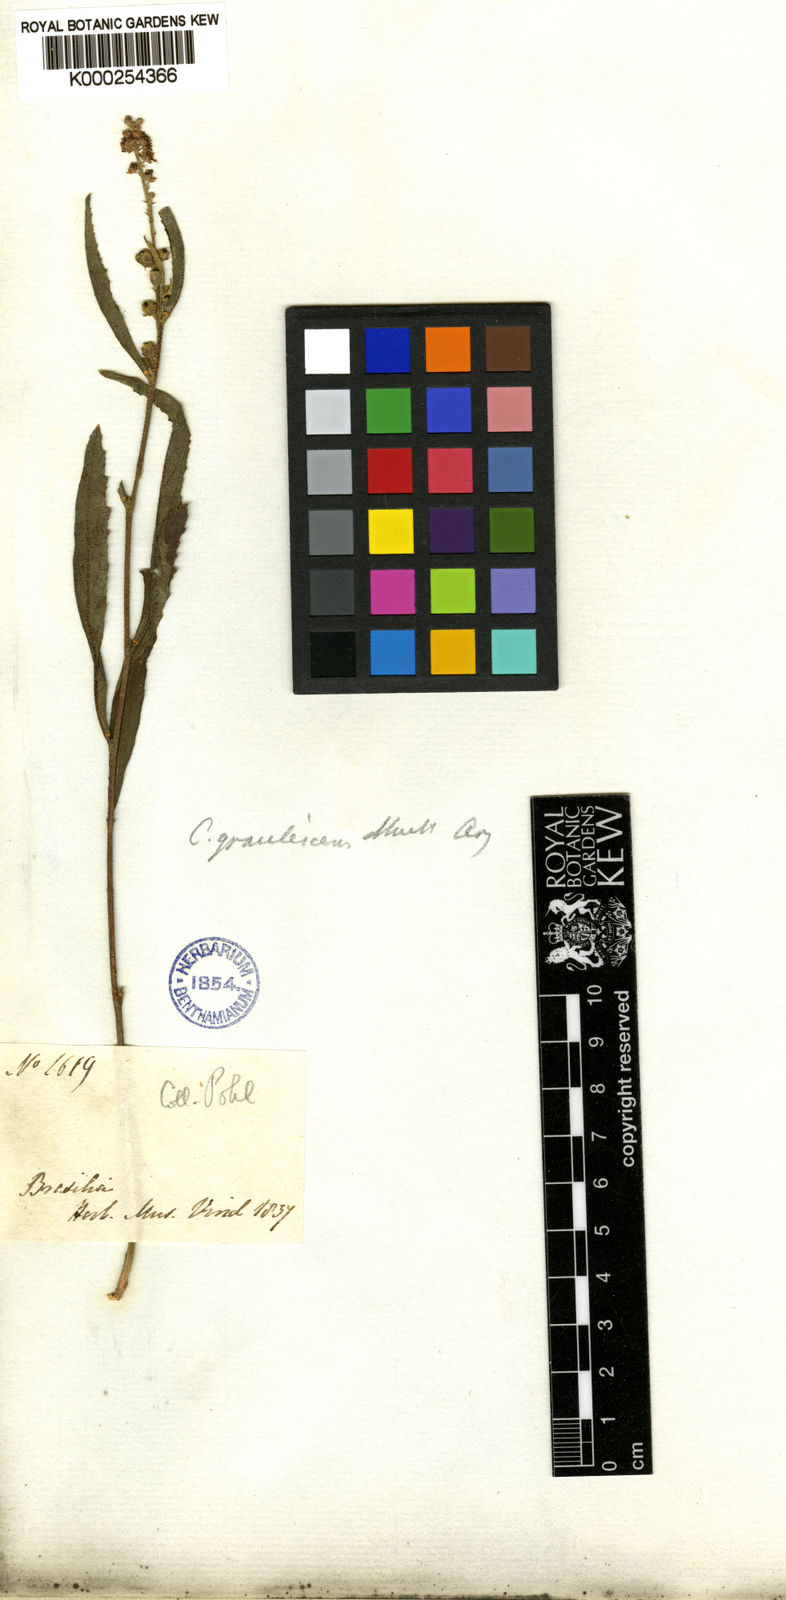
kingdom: Plantae
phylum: Tracheophyta
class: Magnoliopsida
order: Malpighiales
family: Euphorbiaceae
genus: Croton
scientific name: Croton
